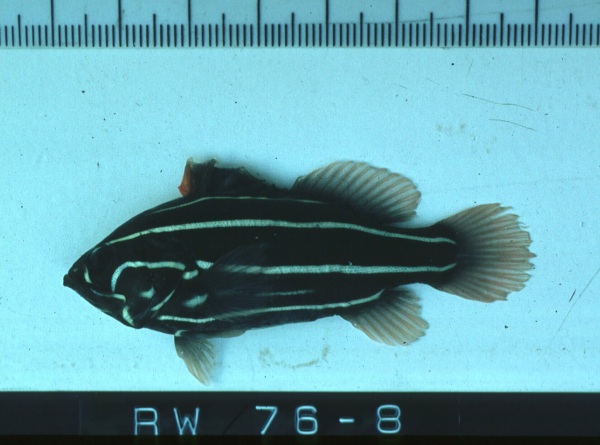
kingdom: Animalia
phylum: Chordata
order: Perciformes
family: Serranidae
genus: Grammistes
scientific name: Grammistes sexlineatus
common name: Sixline soapfish
